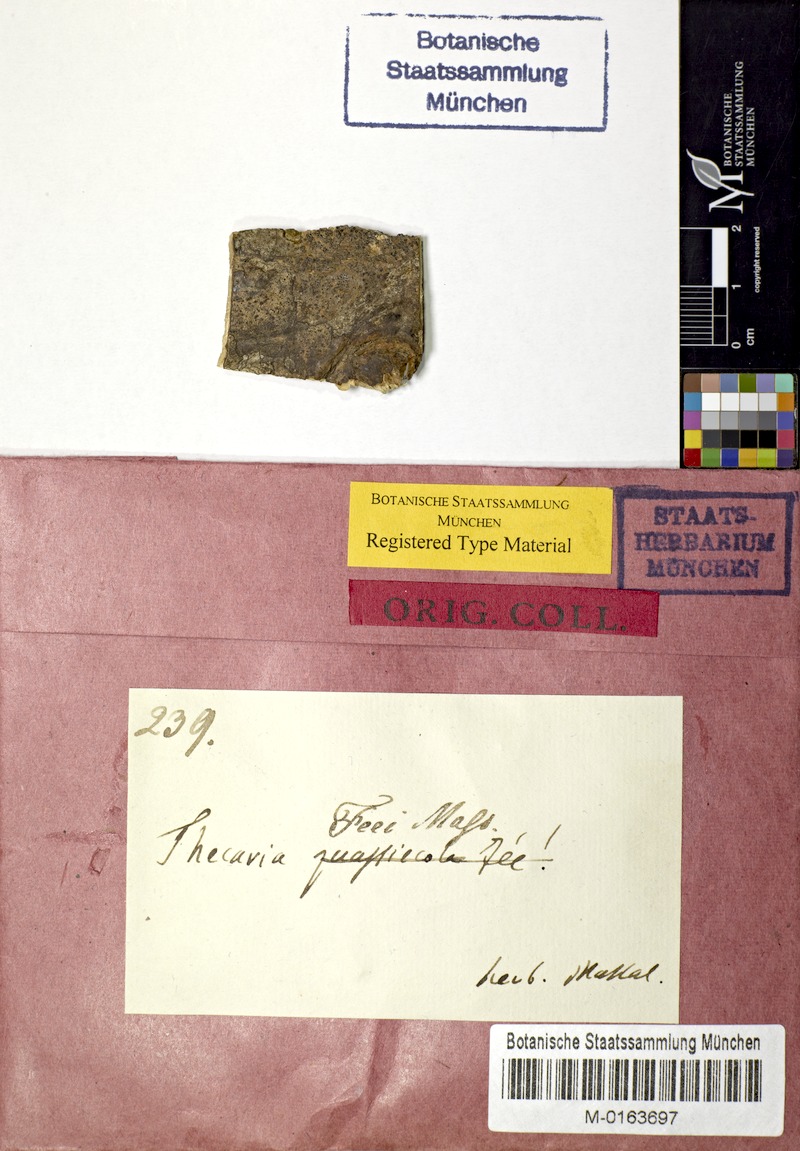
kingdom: Fungi
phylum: Ascomycota
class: Lecanoromycetes
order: Ostropales
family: Graphidaceae
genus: Phaeotrema
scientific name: Phaeotrema feeanum
